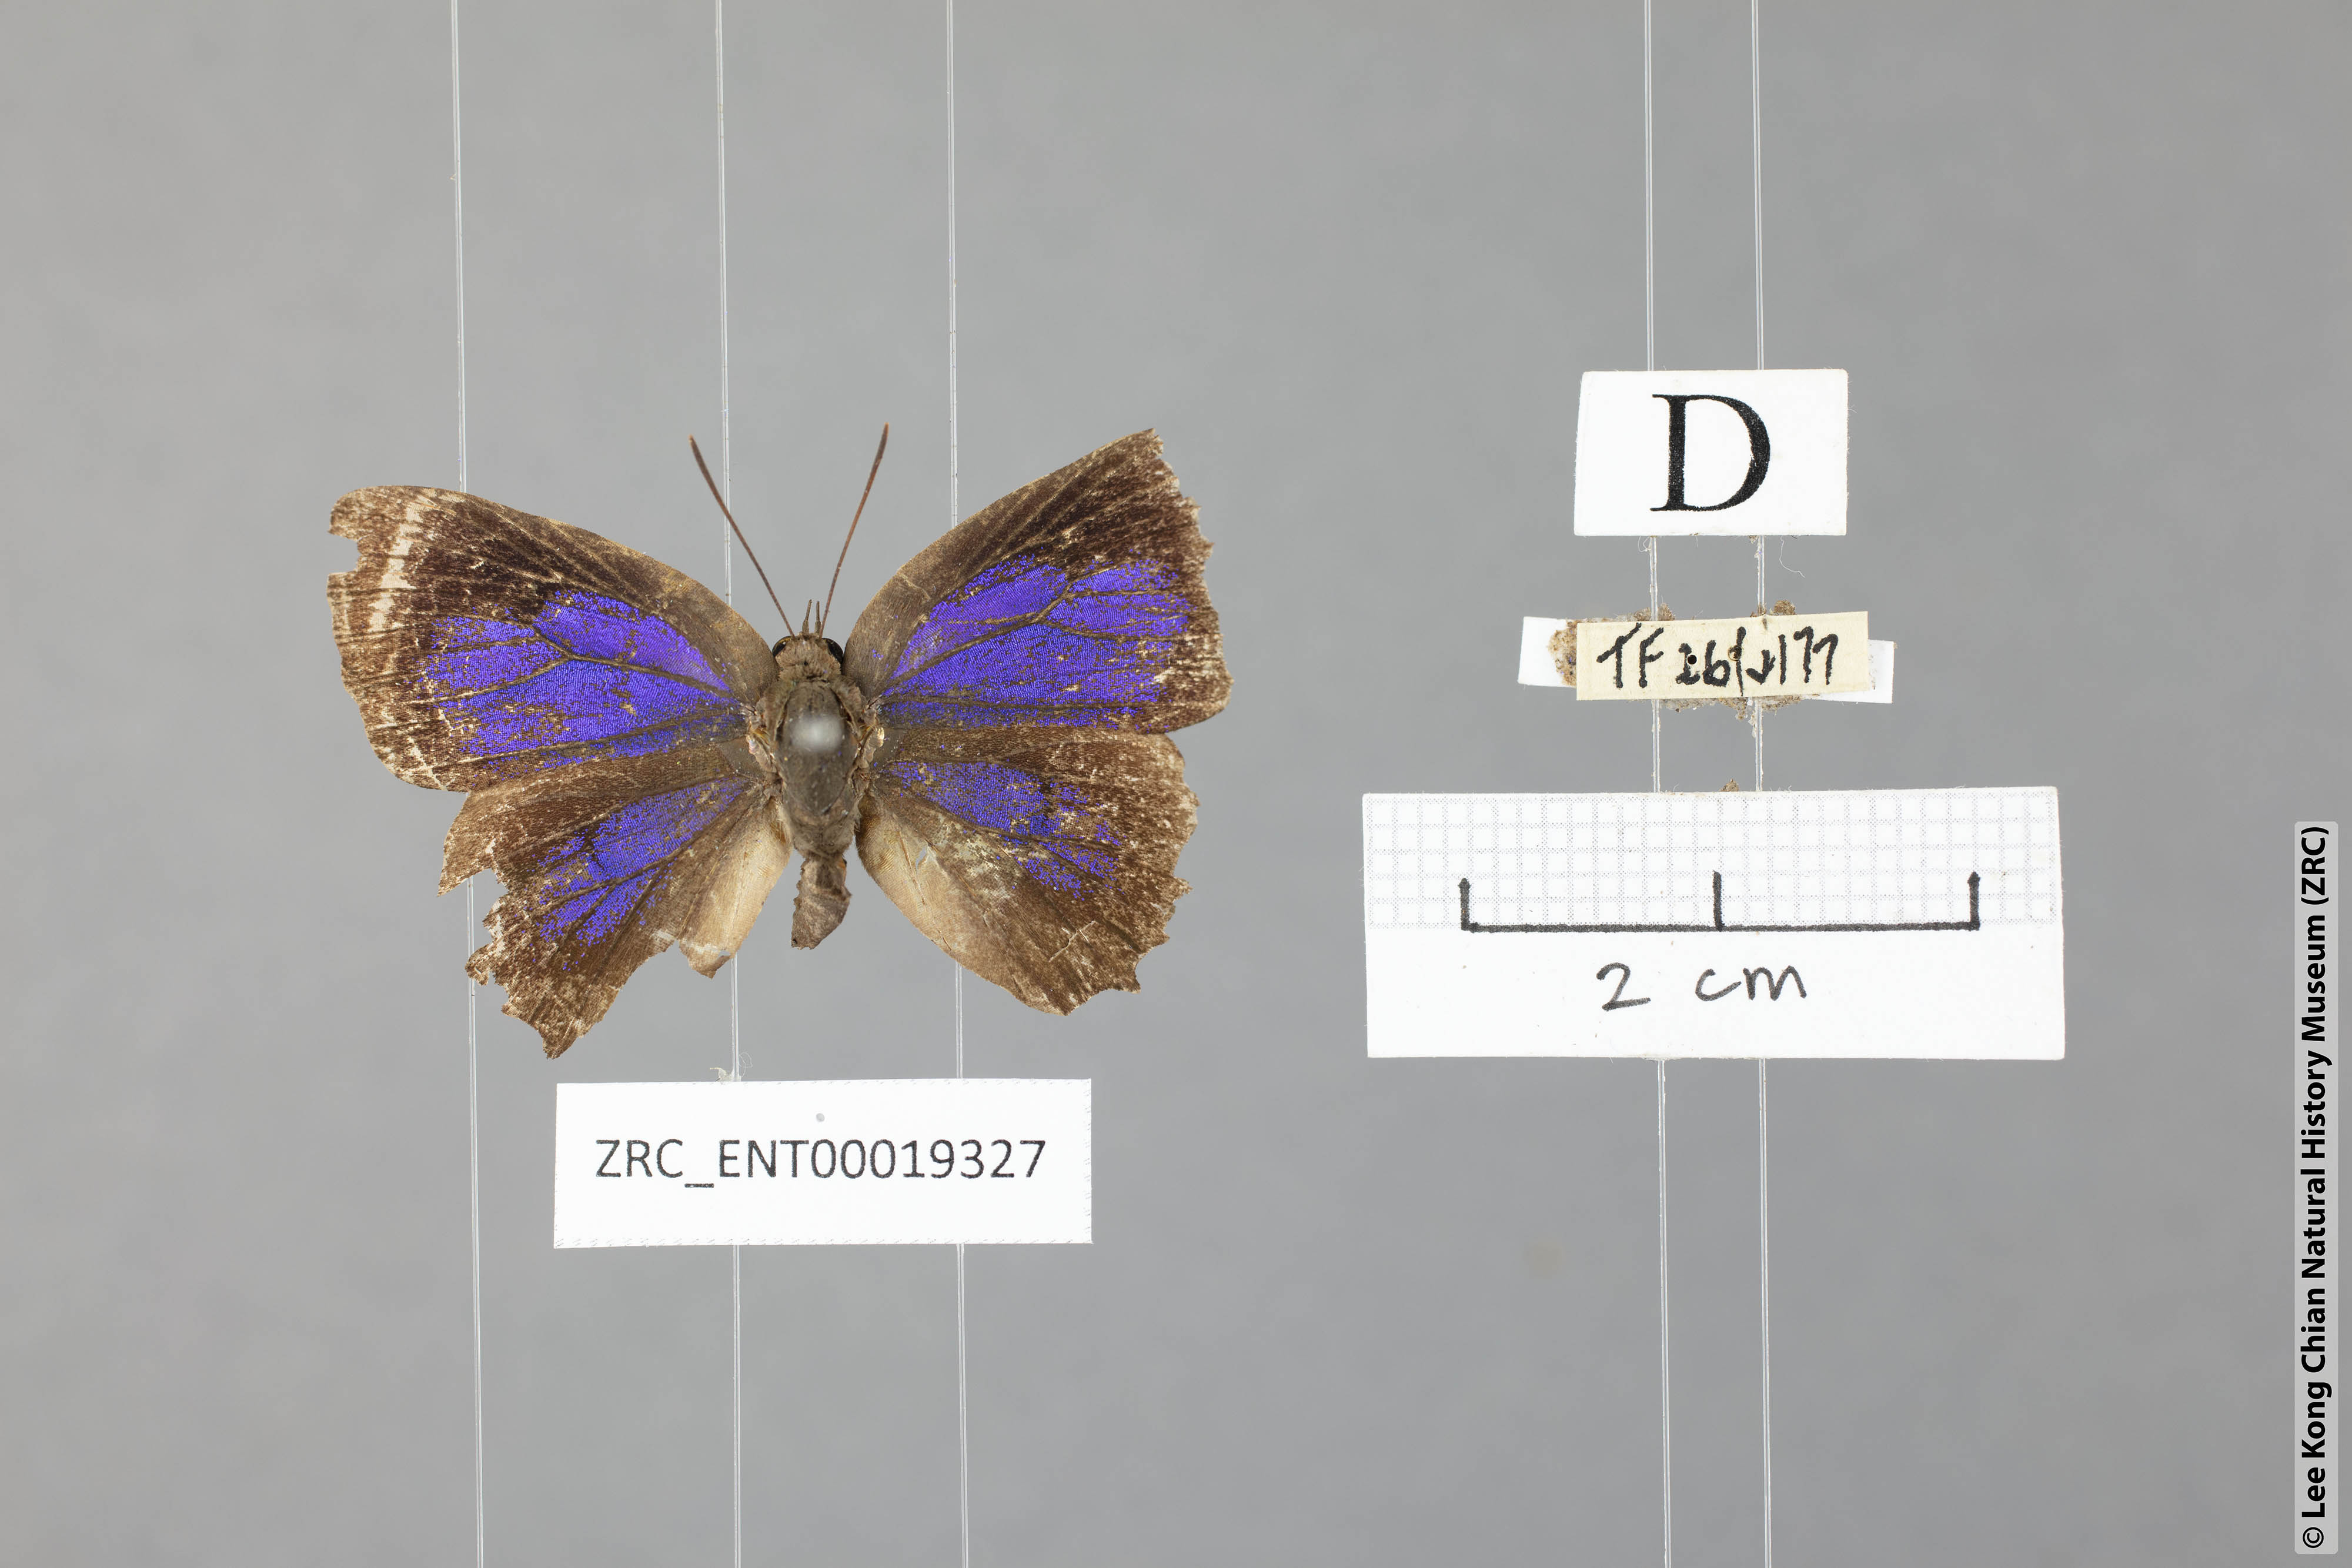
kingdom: Animalia
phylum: Arthropoda
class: Insecta
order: Lepidoptera
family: Lycaenidae
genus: Arhopala
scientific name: Arhopala caea
